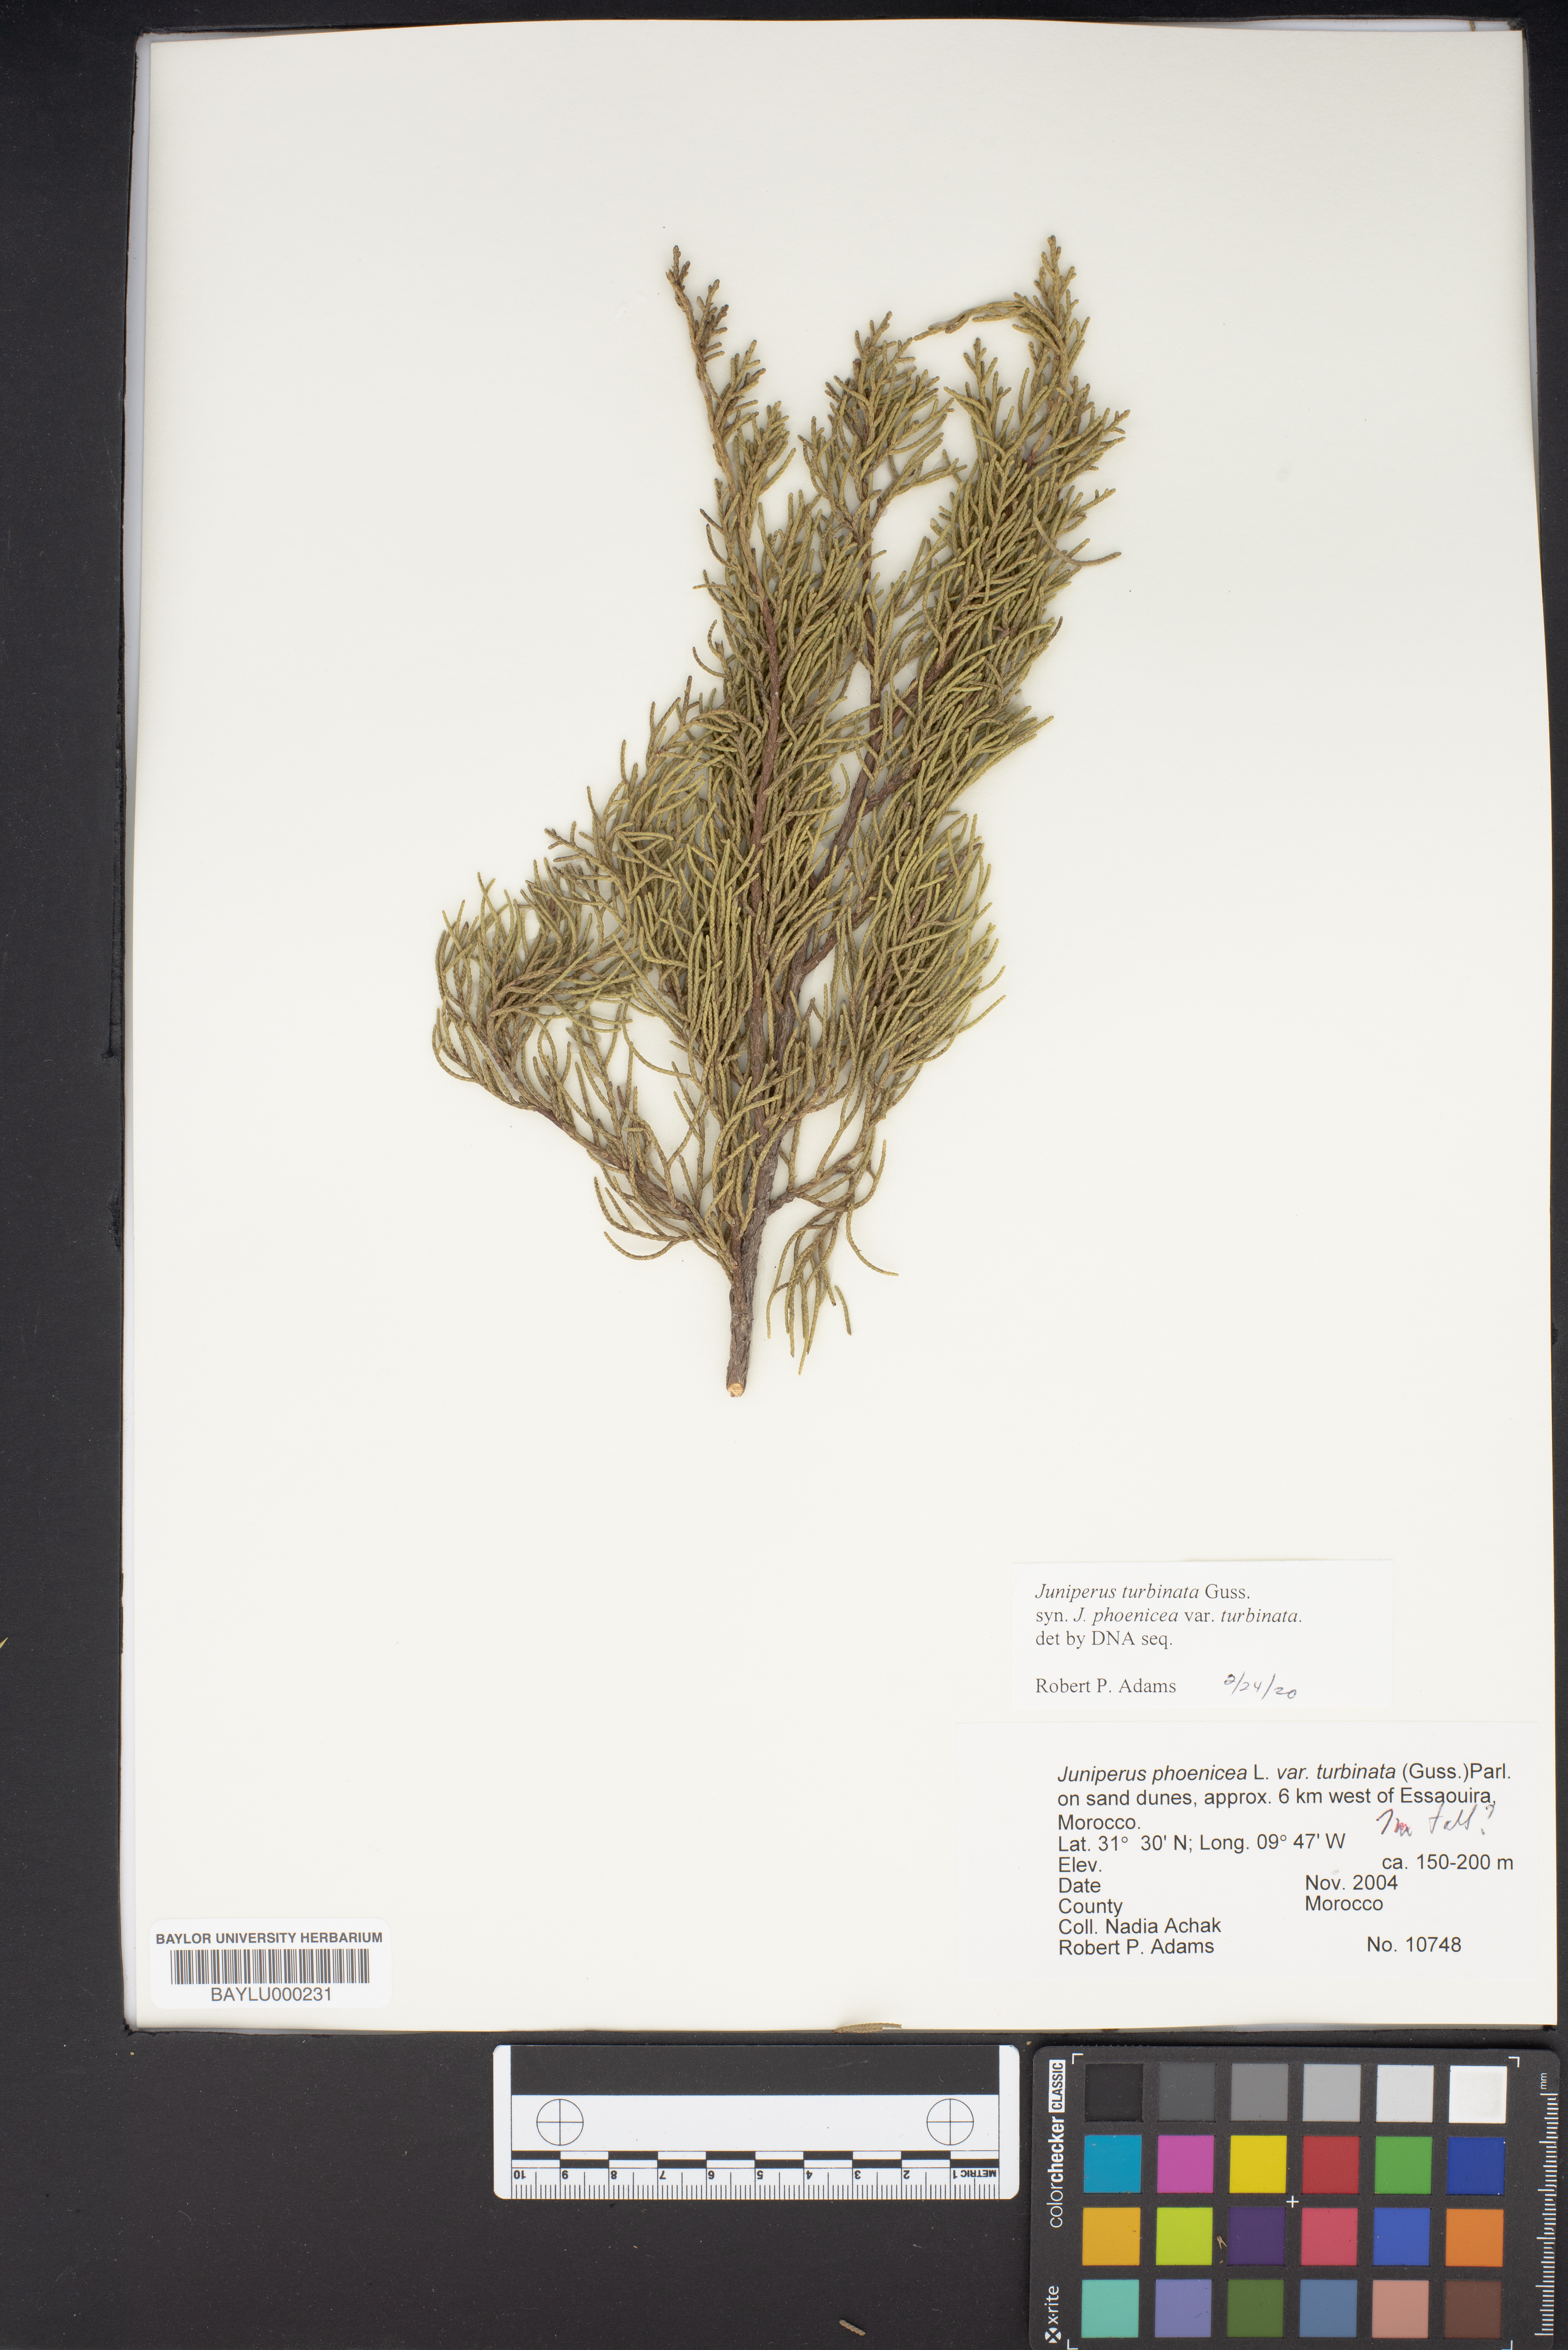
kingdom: Plantae
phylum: Tracheophyta
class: Pinopsida
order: Pinales
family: Cupressaceae
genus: Juniperus
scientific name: Juniperus phoenicea
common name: Phoenician juniper
